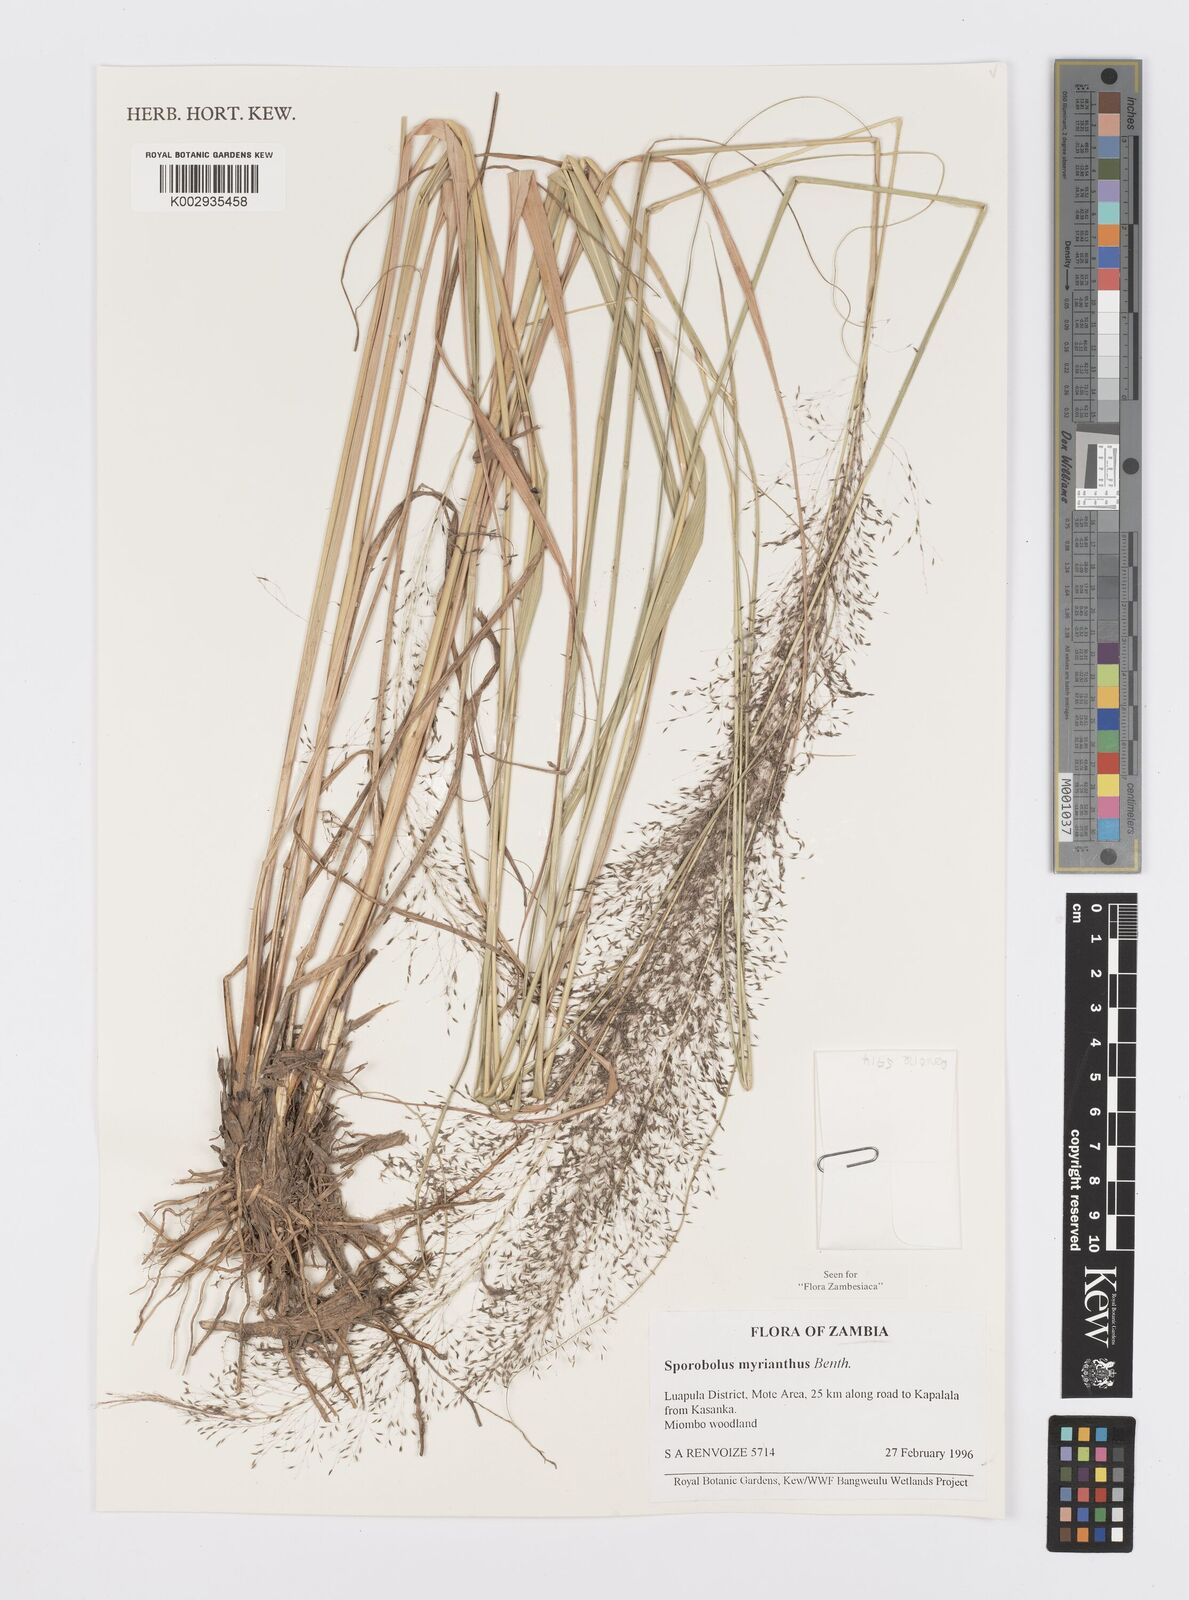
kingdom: Plantae
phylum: Tracheophyta
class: Liliopsida
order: Poales
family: Poaceae
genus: Sporobolus
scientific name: Sporobolus myrianthus
